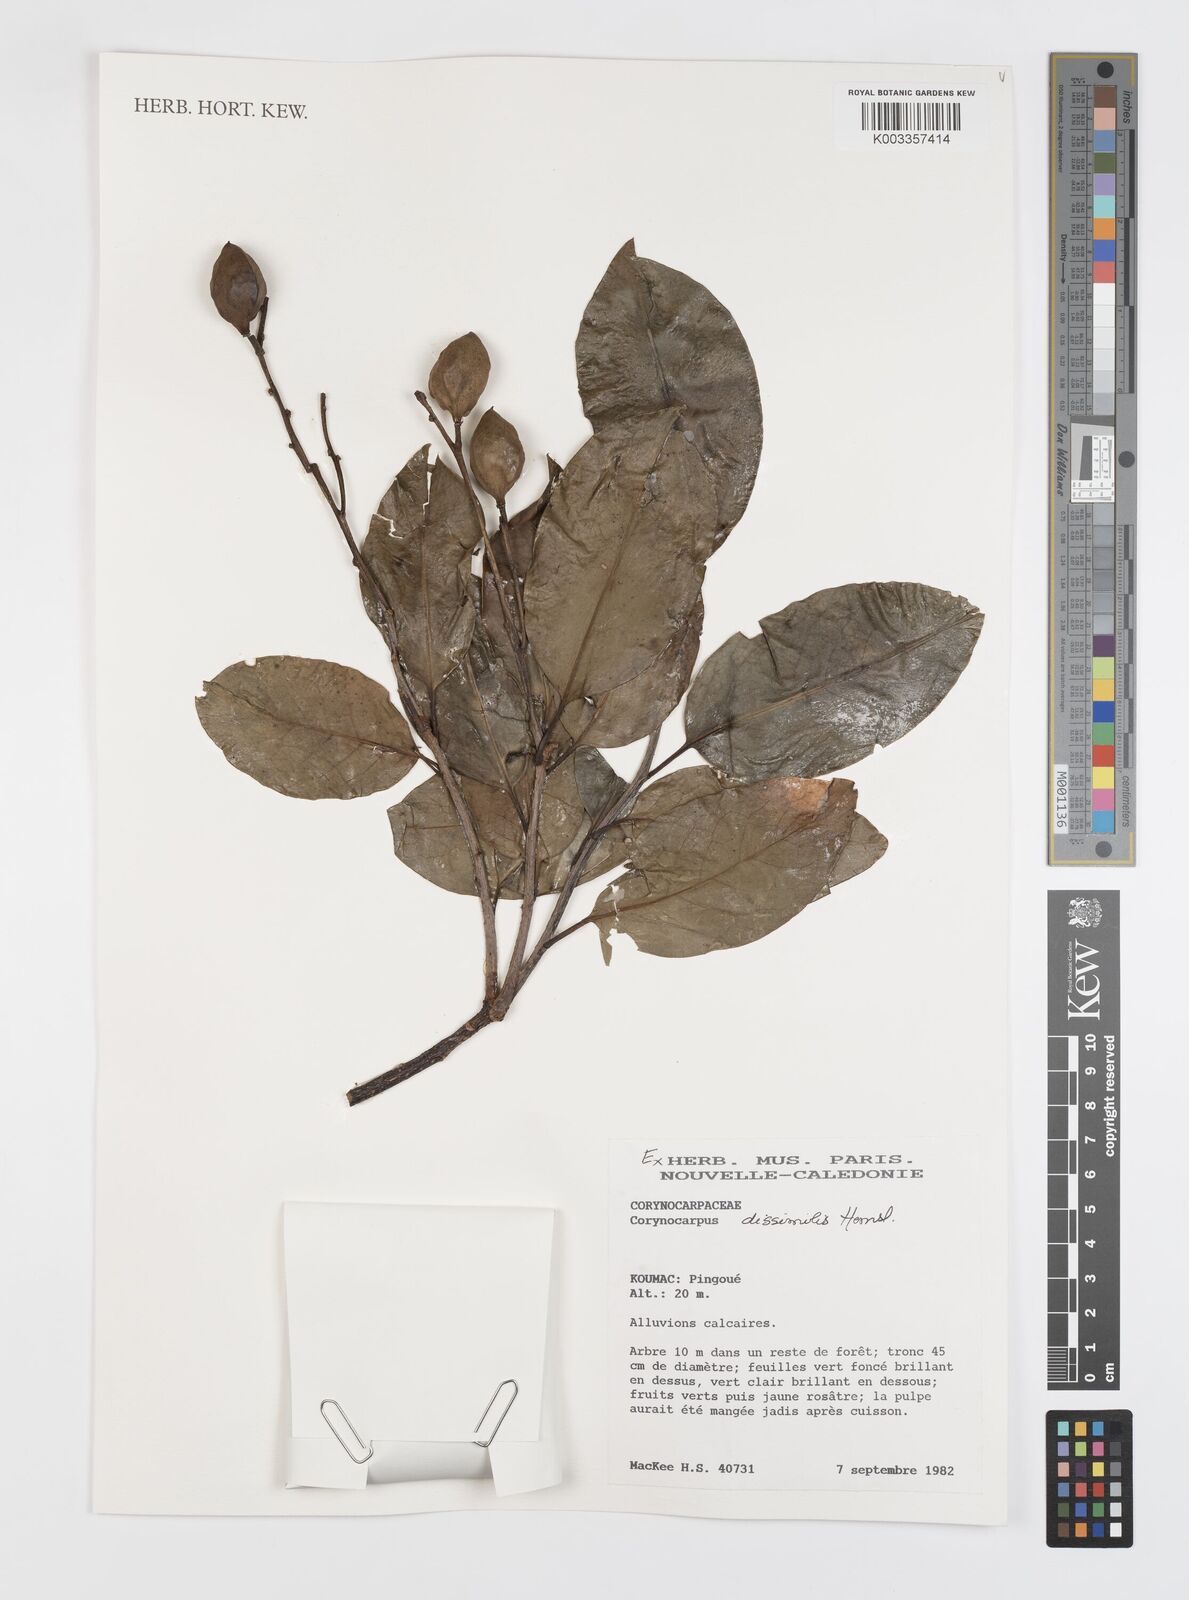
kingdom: Plantae
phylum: Tracheophyta
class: Magnoliopsida
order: Cucurbitales
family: Corynocarpaceae
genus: Corynocarpus
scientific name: Corynocarpus dissimilis
